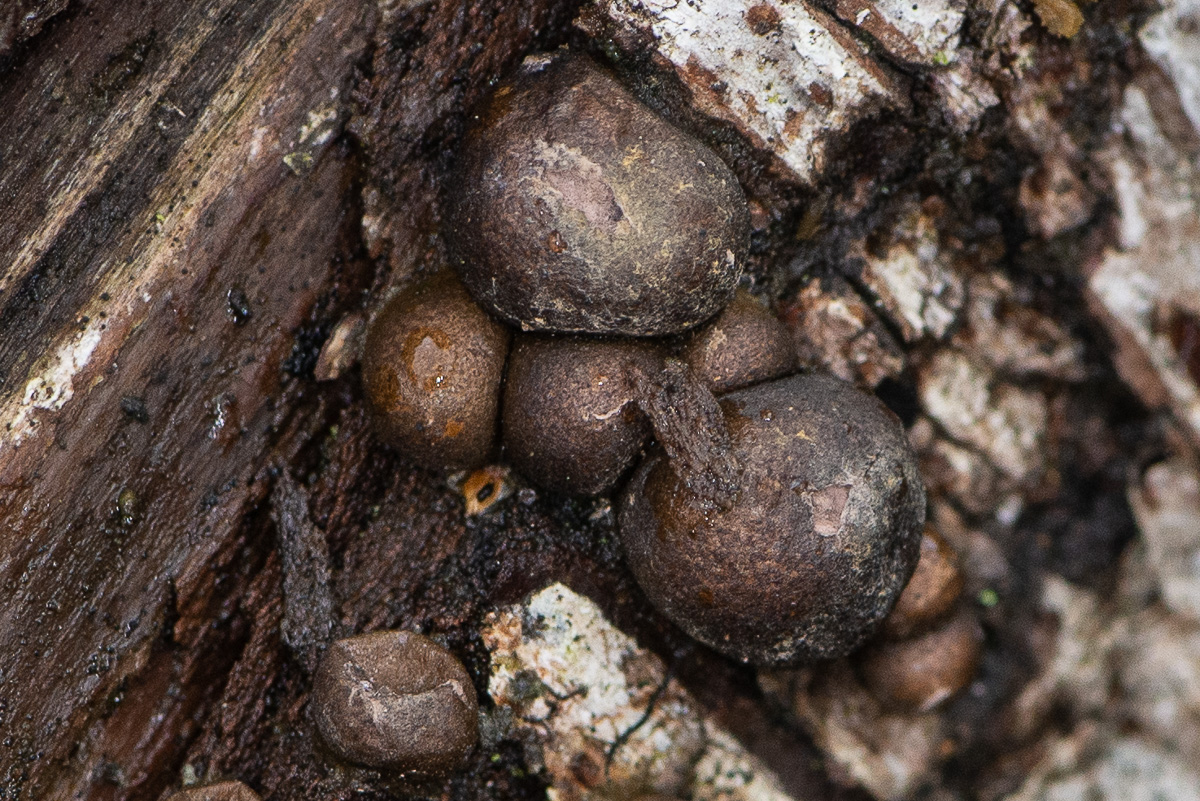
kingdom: Protozoa
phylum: Mycetozoa
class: Myxomycetes
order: Cribrariales
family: Tubiferaceae
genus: Lycogala
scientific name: Lycogala epidendrum
